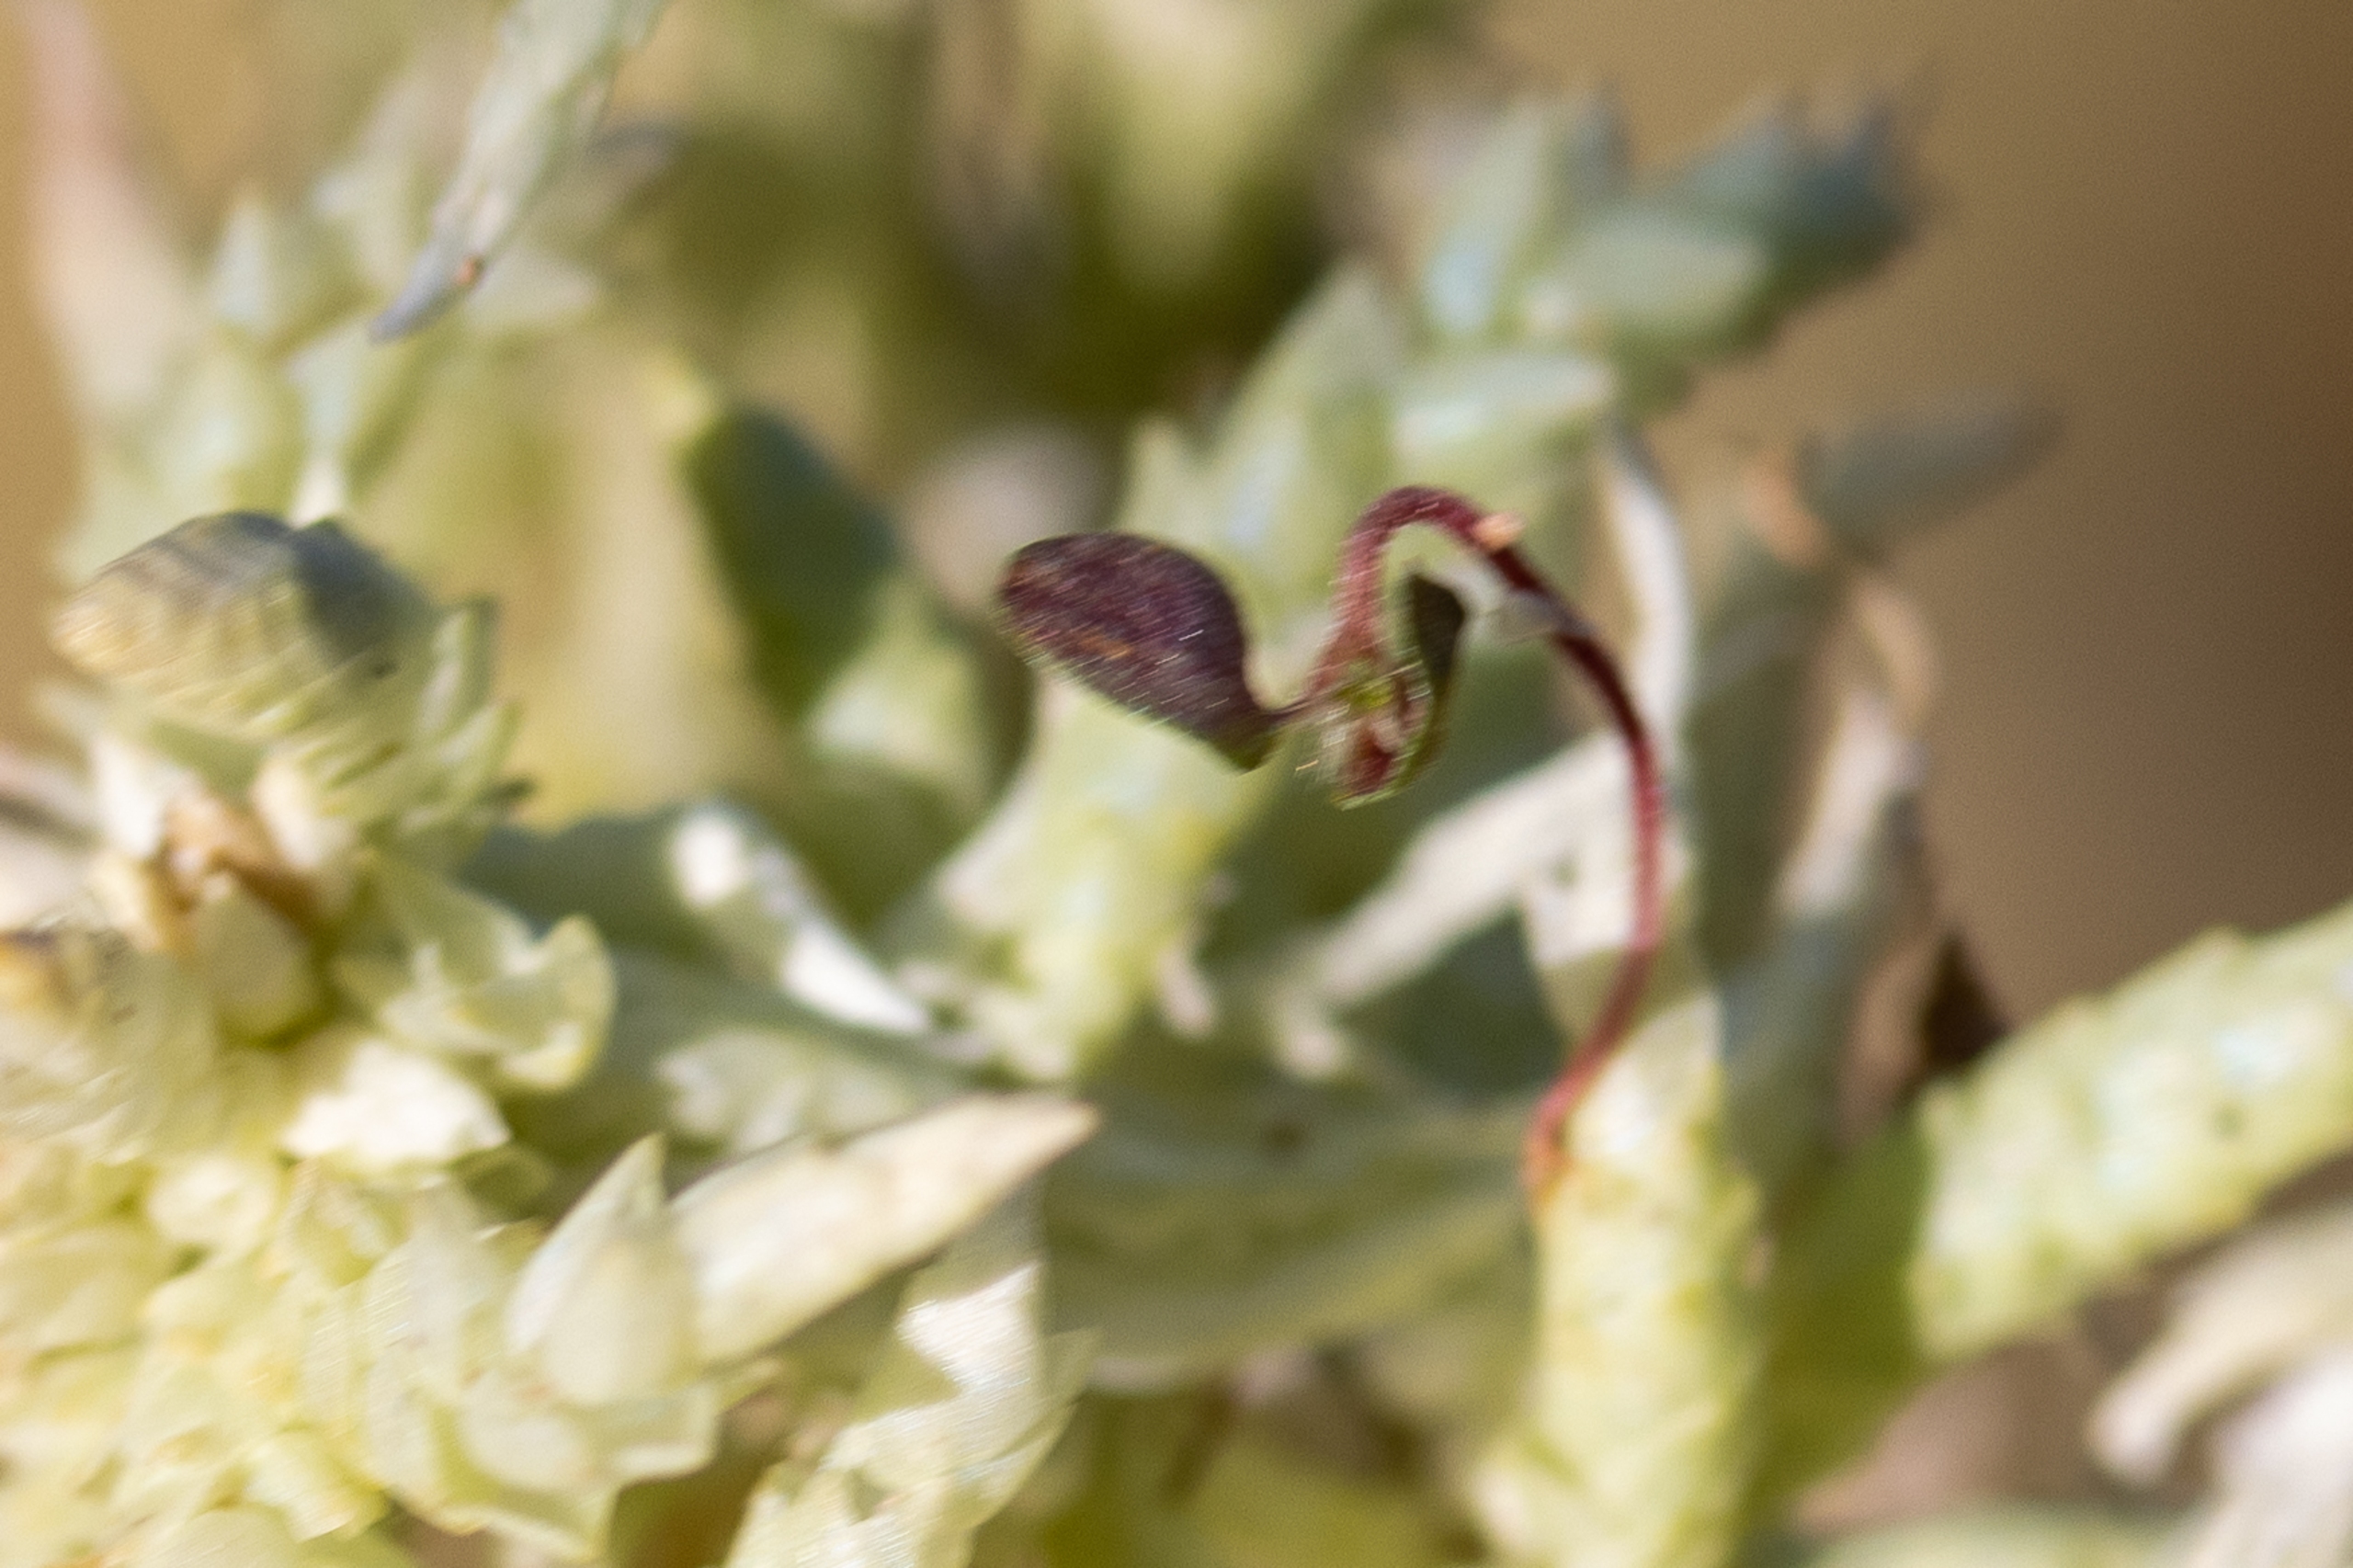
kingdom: Plantae
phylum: Bryophyta
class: Sphagnopsida
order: Sphagnales
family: Sphagnaceae
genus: Sphagnum
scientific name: Sphagnum
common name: Tørvemosslægten
